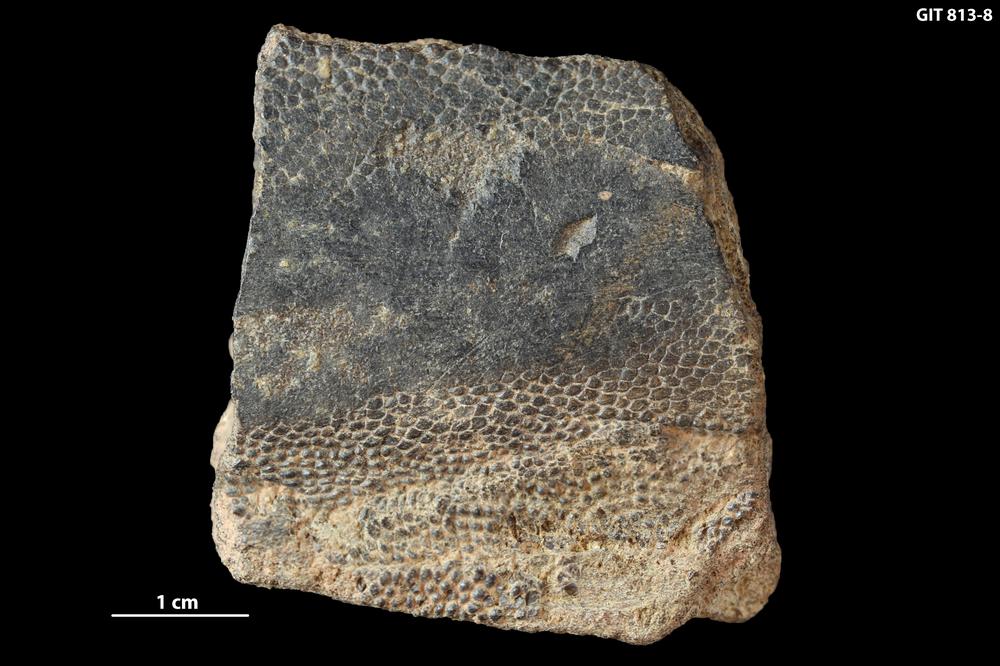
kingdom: Animalia
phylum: Chordata
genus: Schizosteus
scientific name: Schizosteus
